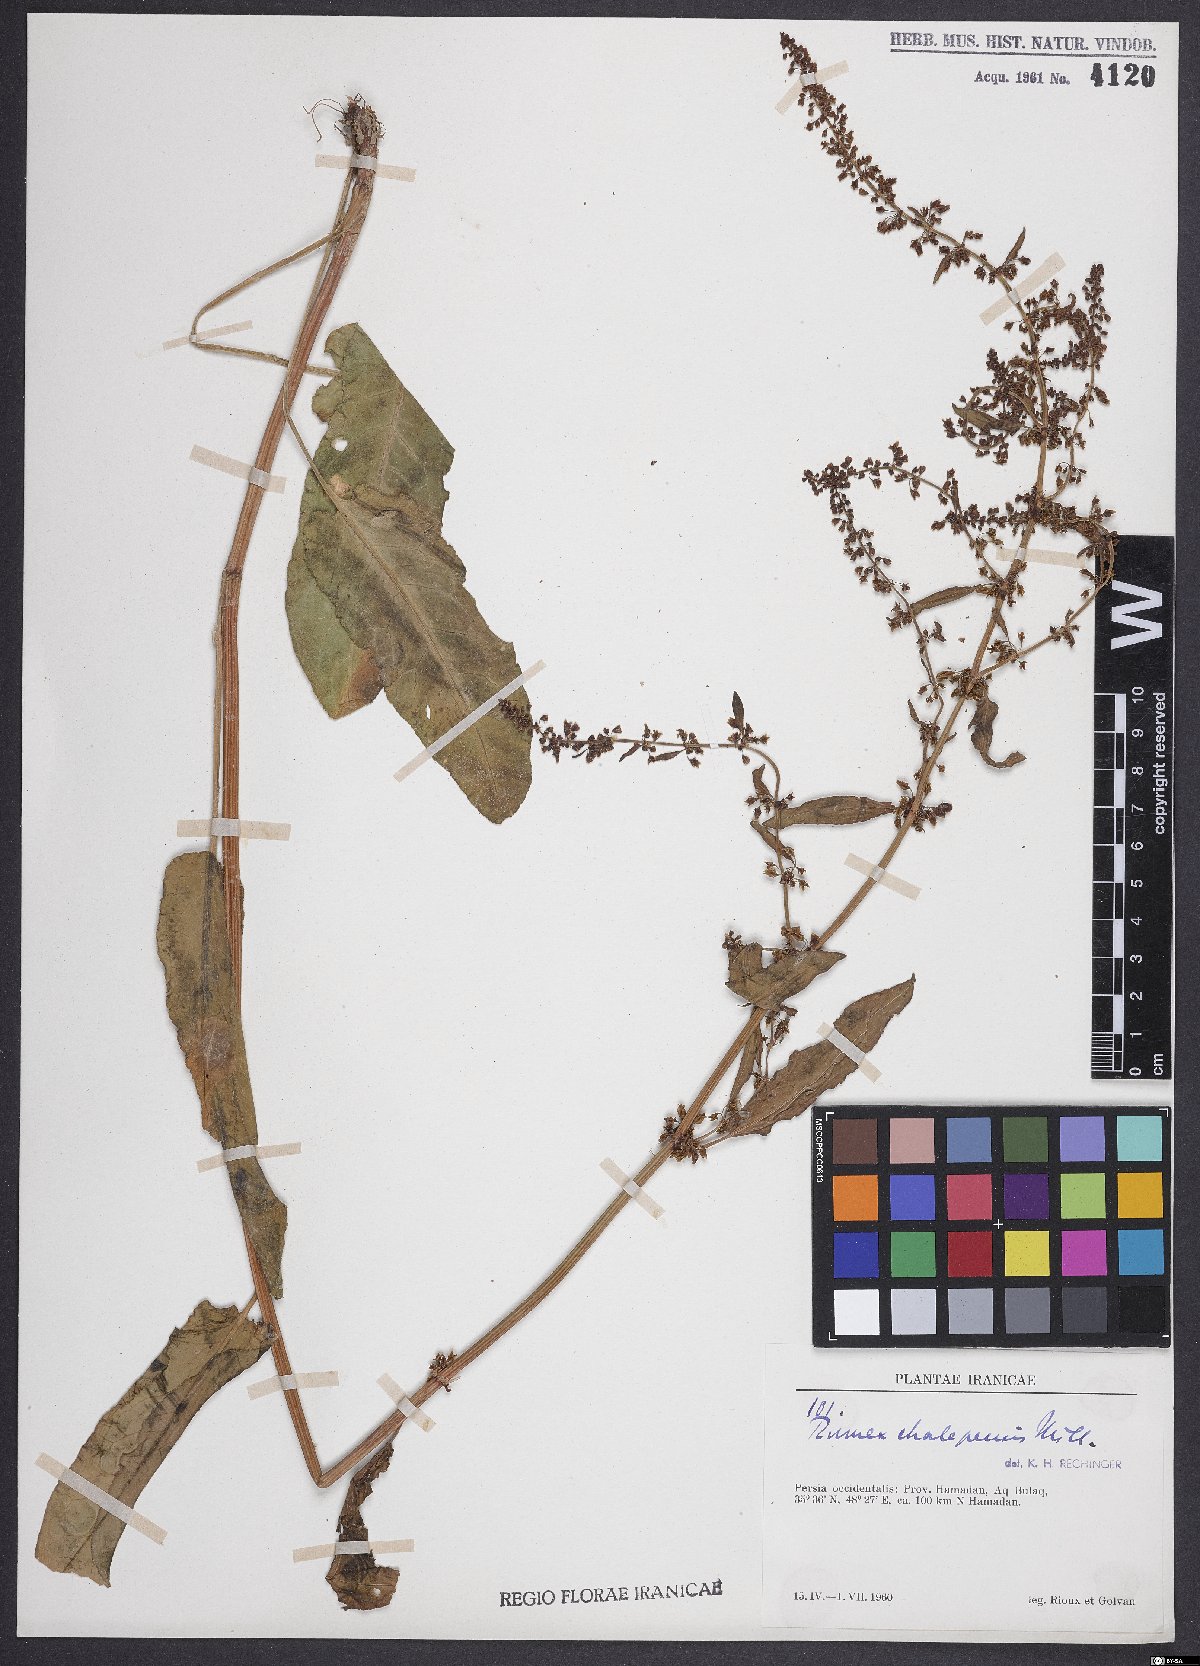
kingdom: Plantae
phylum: Tracheophyta
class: Magnoliopsida
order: Caryophyllales
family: Polygonaceae
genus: Rumex
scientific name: Rumex chalepensis
